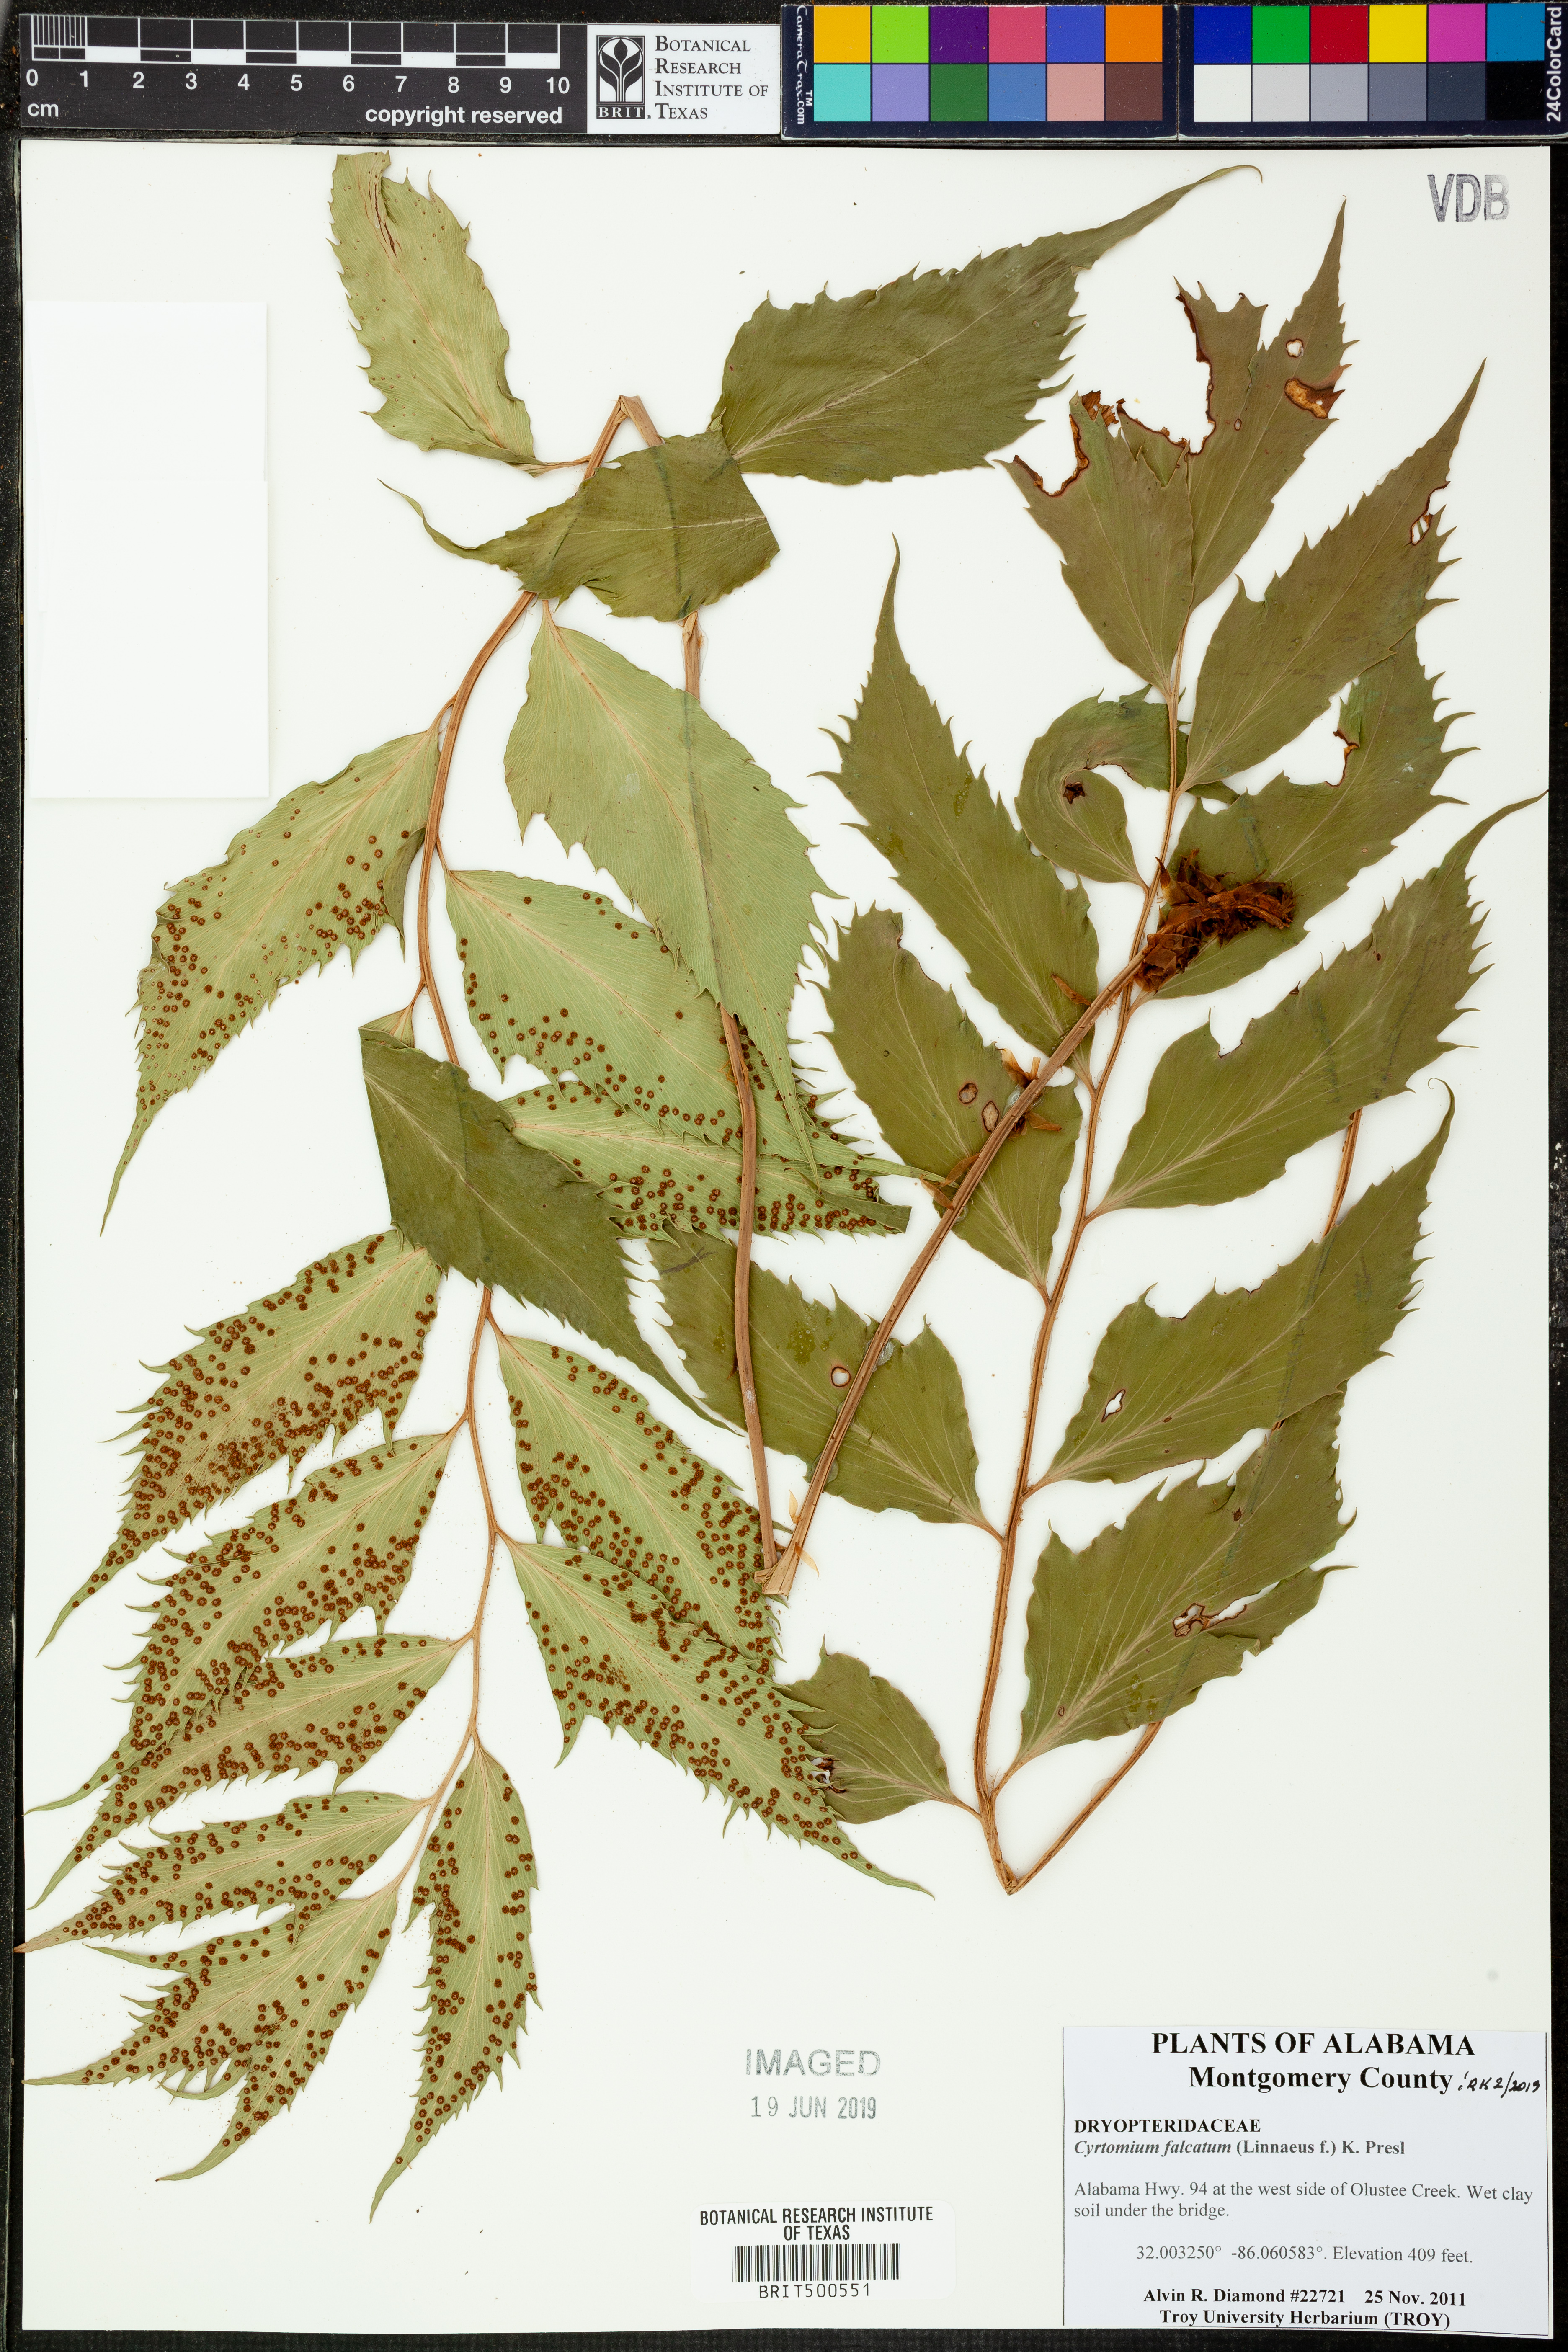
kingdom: Plantae
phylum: Tracheophyta
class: Polypodiopsida
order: Polypodiales
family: Dryopteridaceae
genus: Cyrtomium
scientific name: Cyrtomium falcatum
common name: House holly-fern
